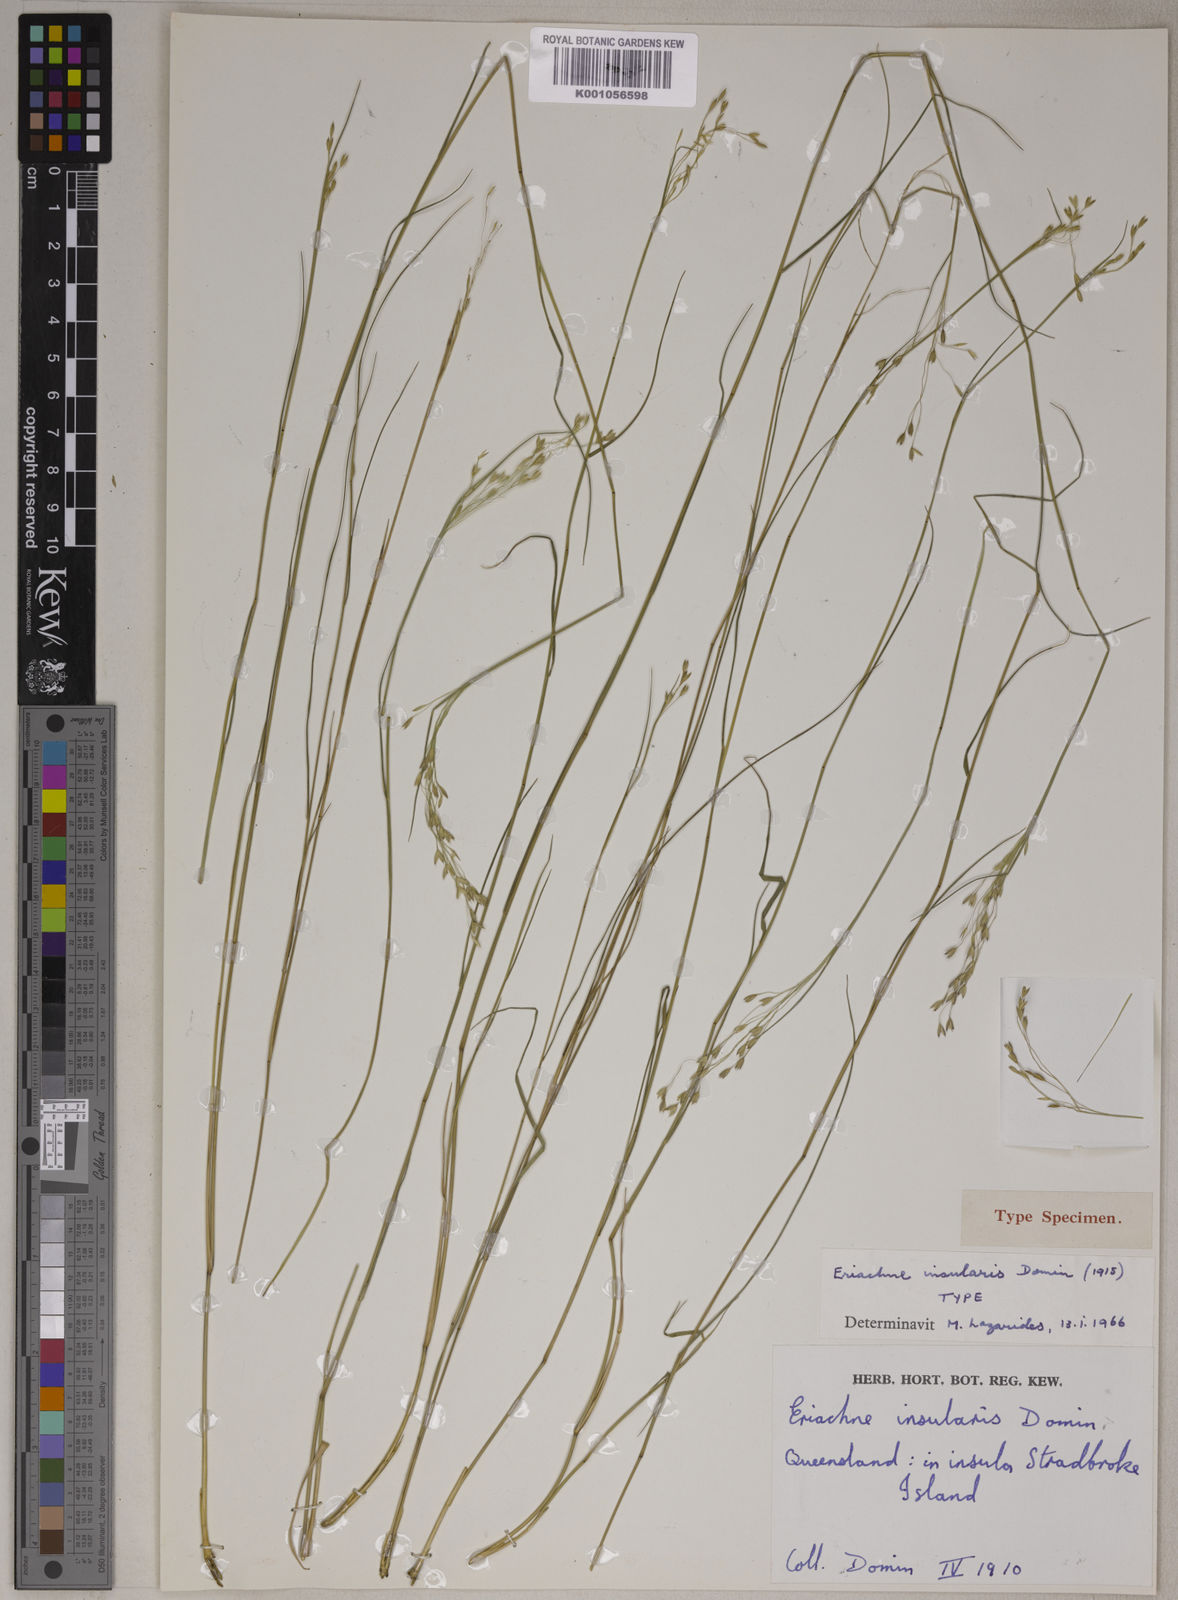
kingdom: Plantae
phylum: Tracheophyta
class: Liliopsida
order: Poales
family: Poaceae
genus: Eriachne
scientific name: Eriachne insularis
